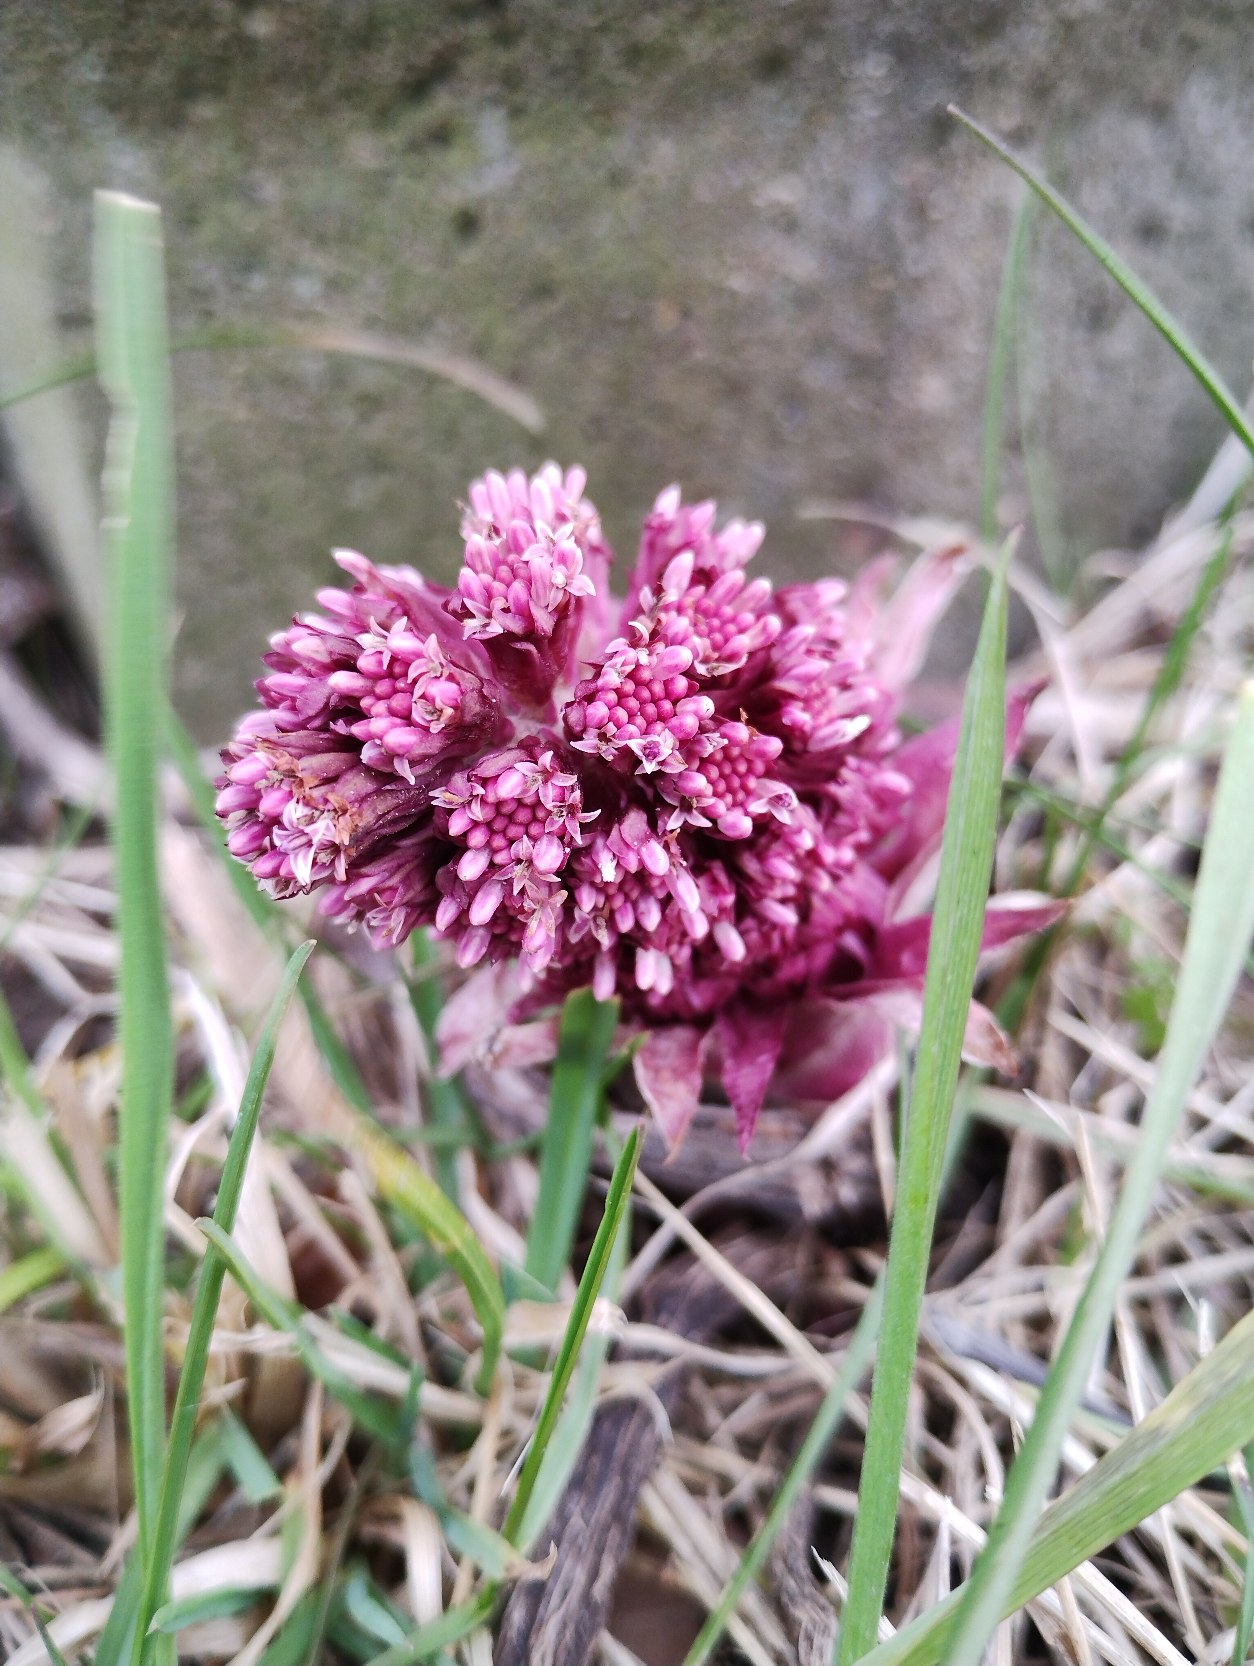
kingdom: Plantae
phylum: Tracheophyta
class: Magnoliopsida
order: Asterales
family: Asteraceae
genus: Petasites
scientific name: Petasites hybridus
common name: Rød hestehov
